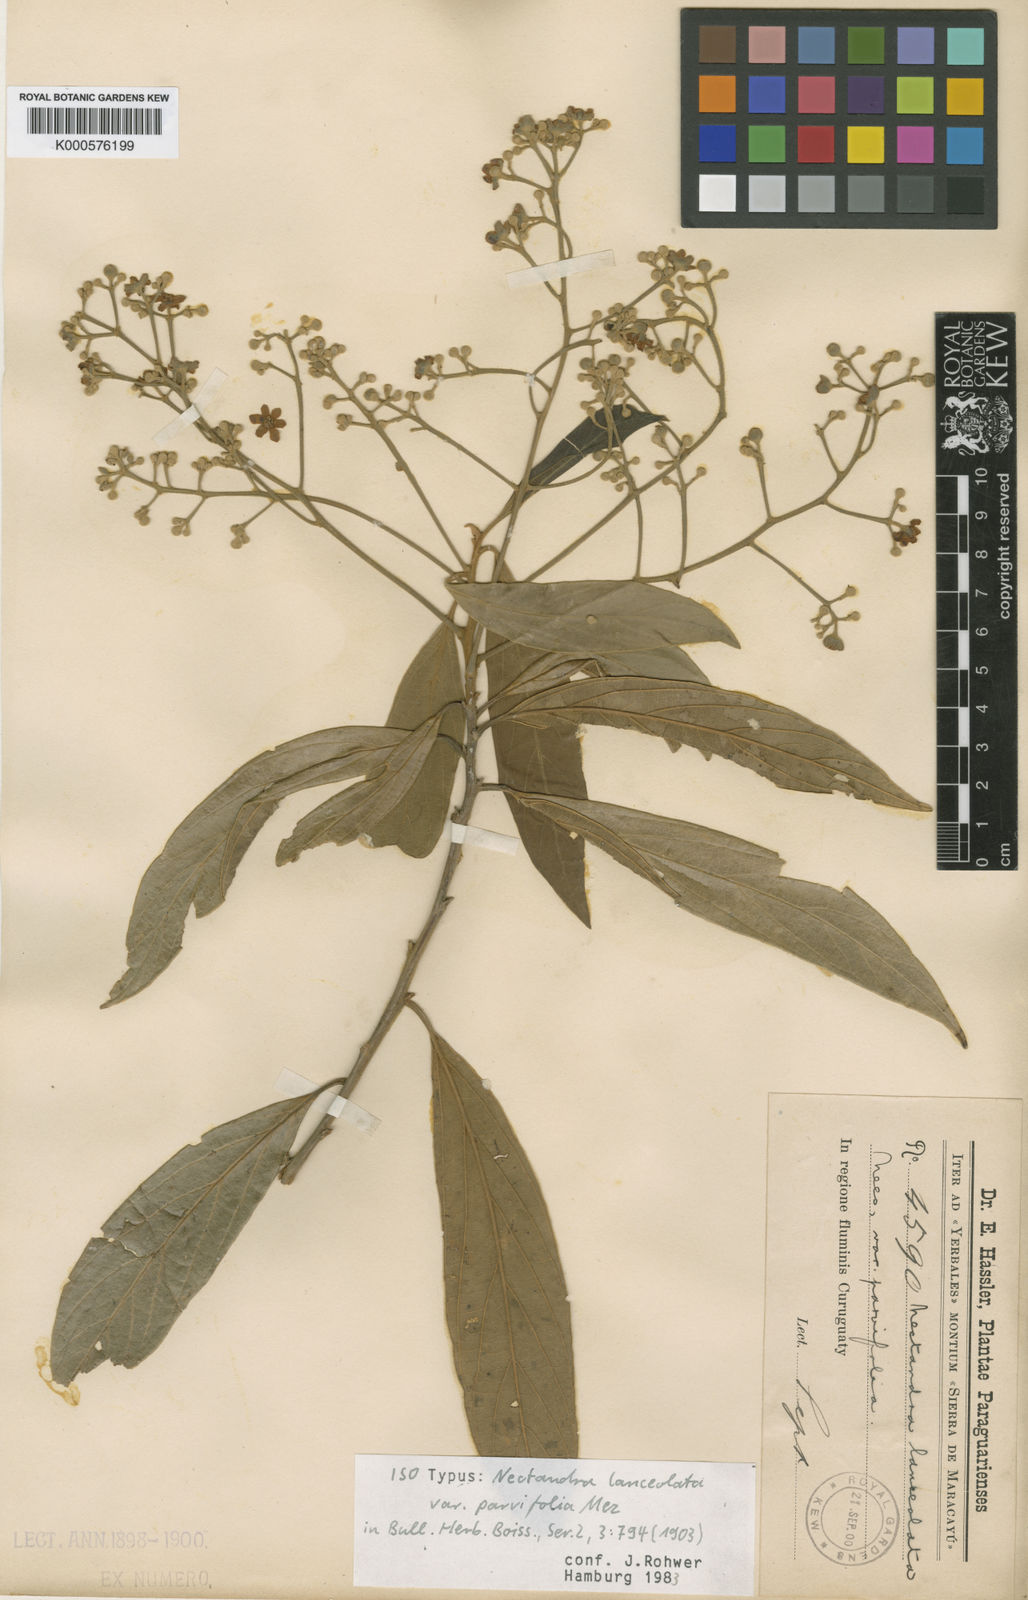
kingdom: Plantae
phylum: Tracheophyta
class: Magnoliopsida
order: Laurales
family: Lauraceae
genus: Nectandra
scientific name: Nectandra lanceolata
